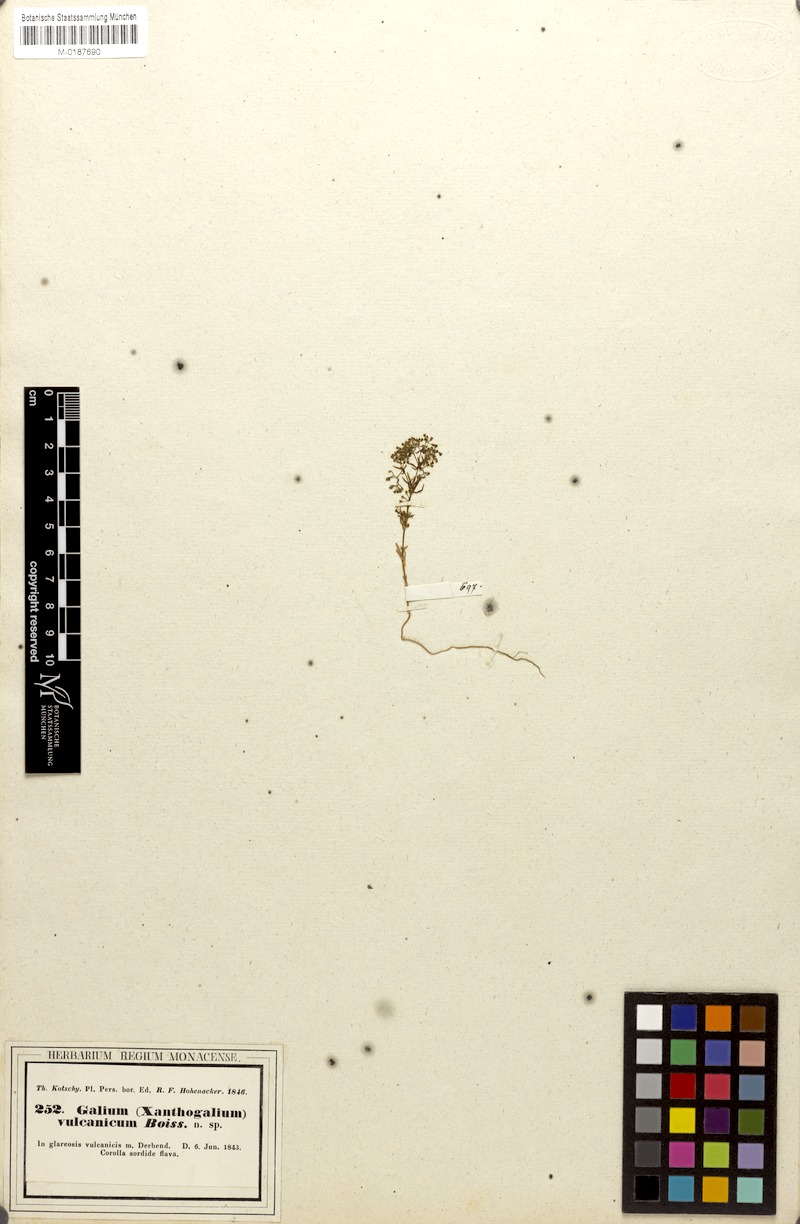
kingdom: Plantae
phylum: Tracheophyta
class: Magnoliopsida
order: Gentianales
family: Rubiaceae
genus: Galium
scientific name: Galium nigricans
